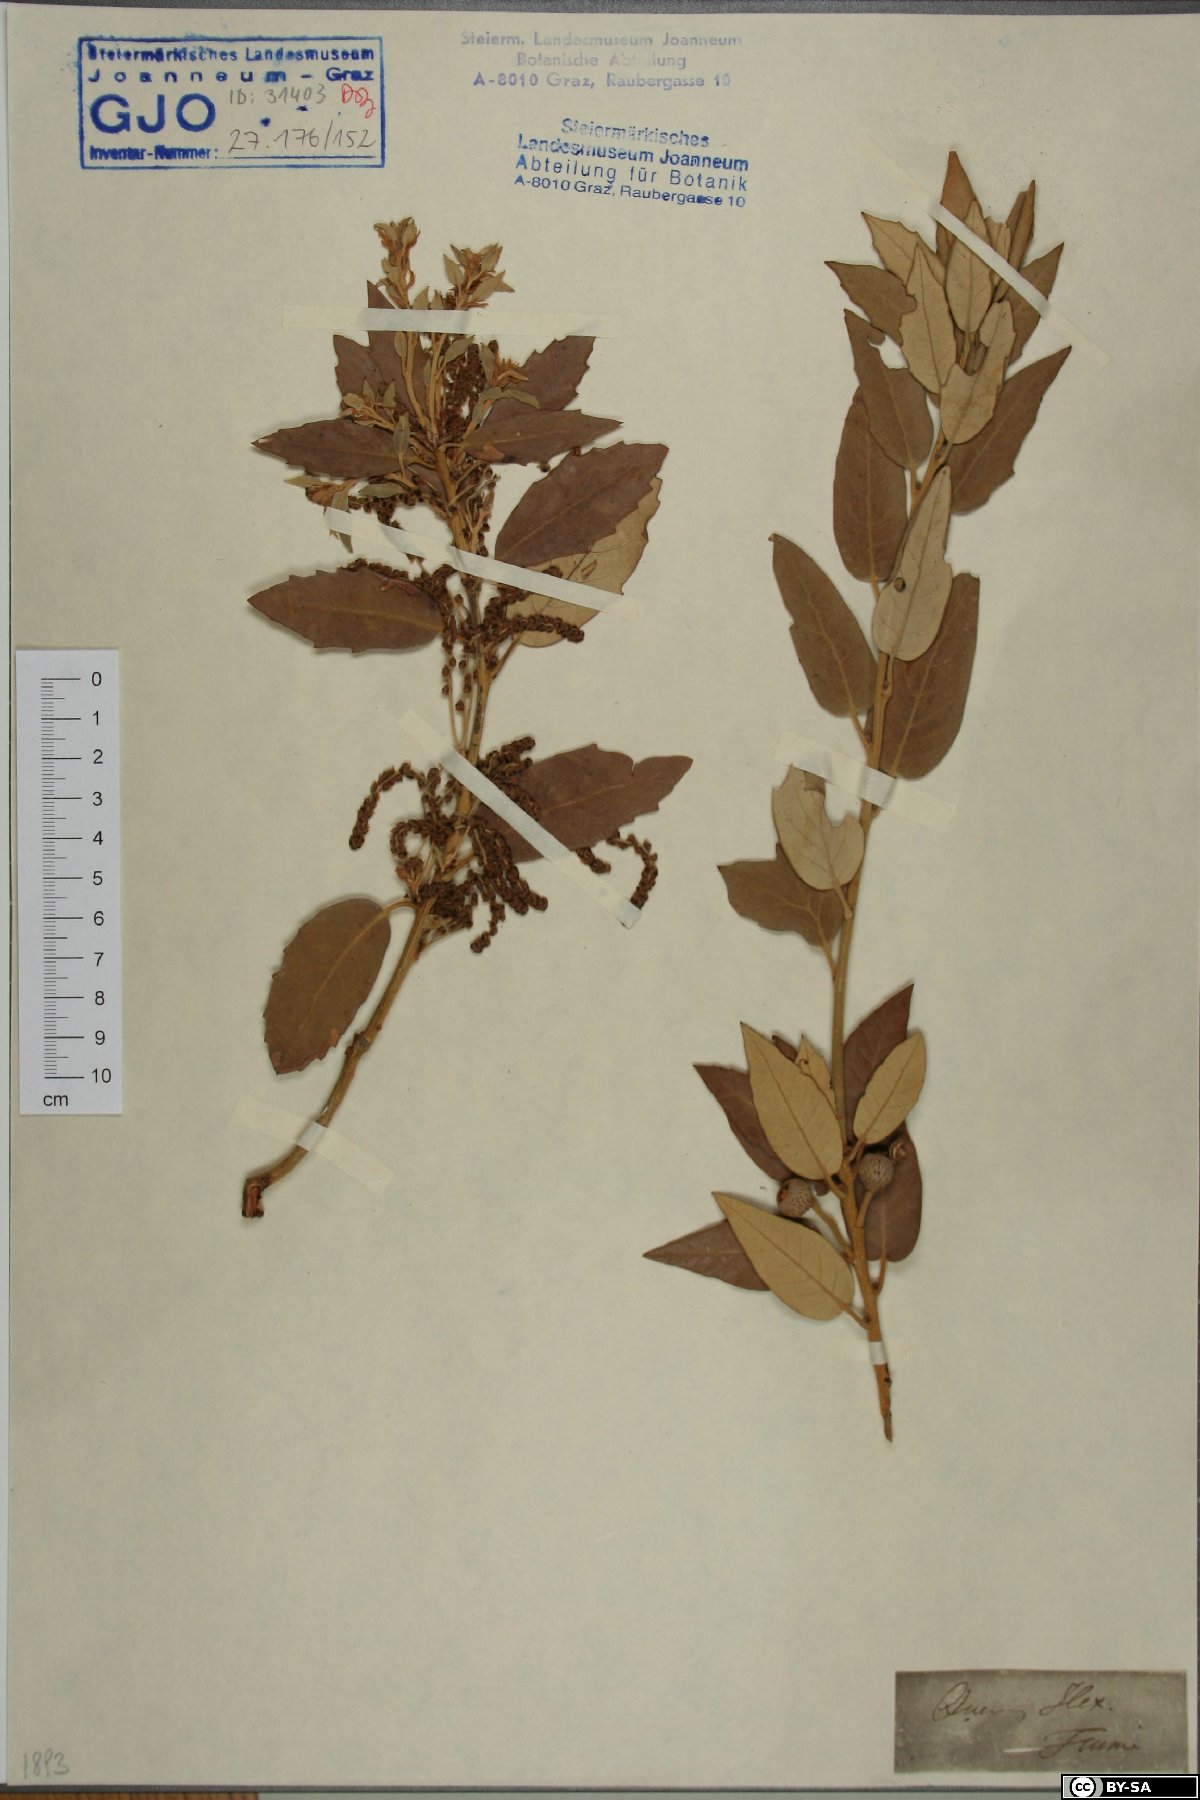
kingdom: Plantae
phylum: Tracheophyta
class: Magnoliopsida
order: Fagales
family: Fagaceae
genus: Quercus
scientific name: Quercus ilex
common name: Evergreen oak
